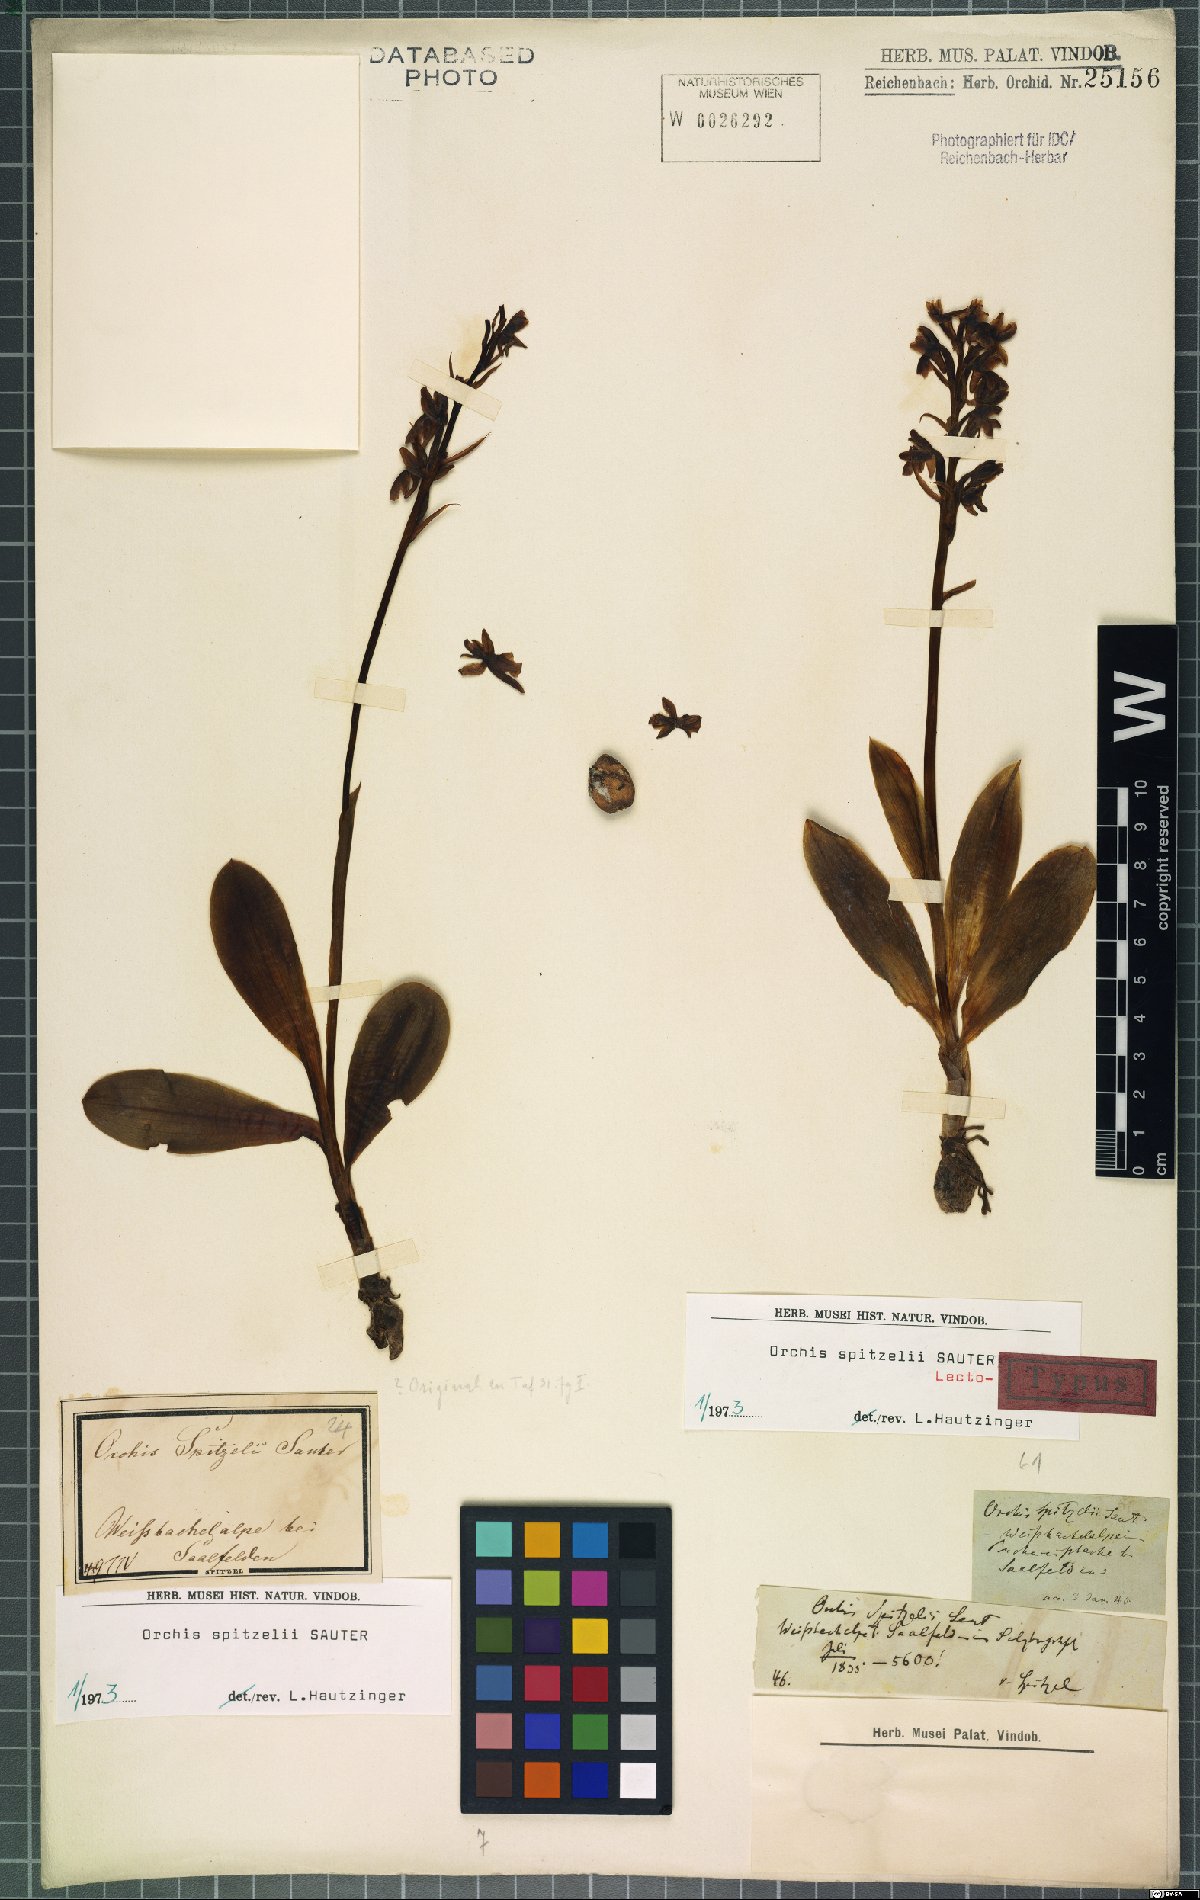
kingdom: Plantae
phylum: Tracheophyta
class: Liliopsida
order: Asparagales
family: Orchidaceae
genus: Orchis
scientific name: Orchis spitzelii
